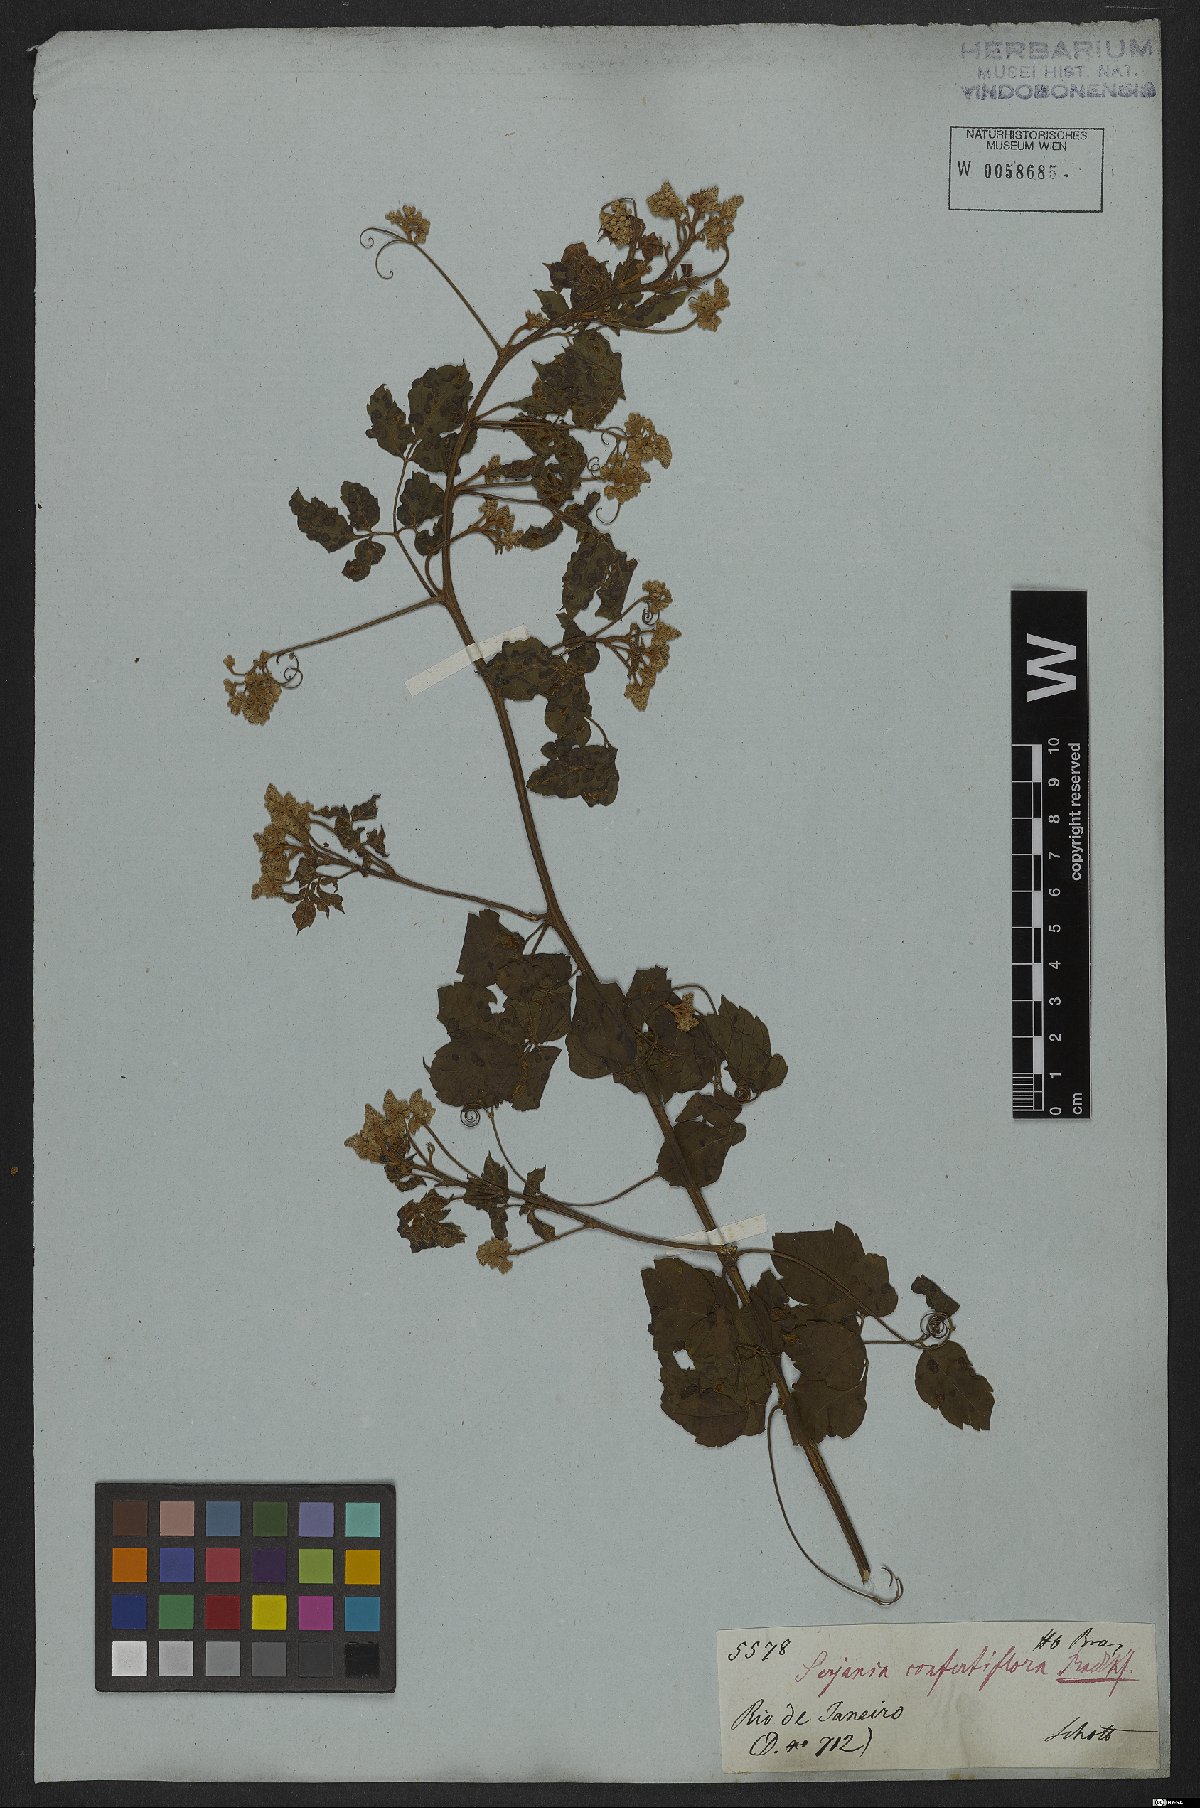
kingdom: Plantae
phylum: Tracheophyta
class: Magnoliopsida
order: Sapindales
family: Sapindaceae
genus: Serjania
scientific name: Serjania confertiflora
